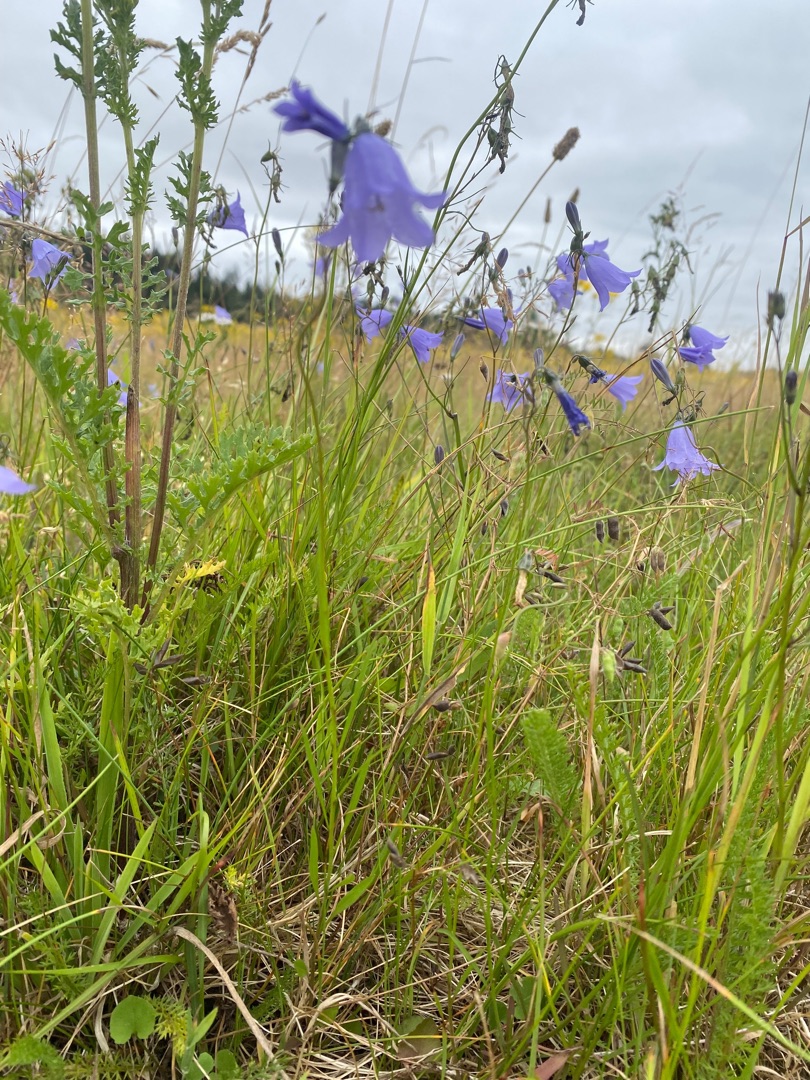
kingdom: Plantae
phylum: Tracheophyta
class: Magnoliopsida
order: Asterales
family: Campanulaceae
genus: Campanula
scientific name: Campanula rotundifolia
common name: Liden klokke
